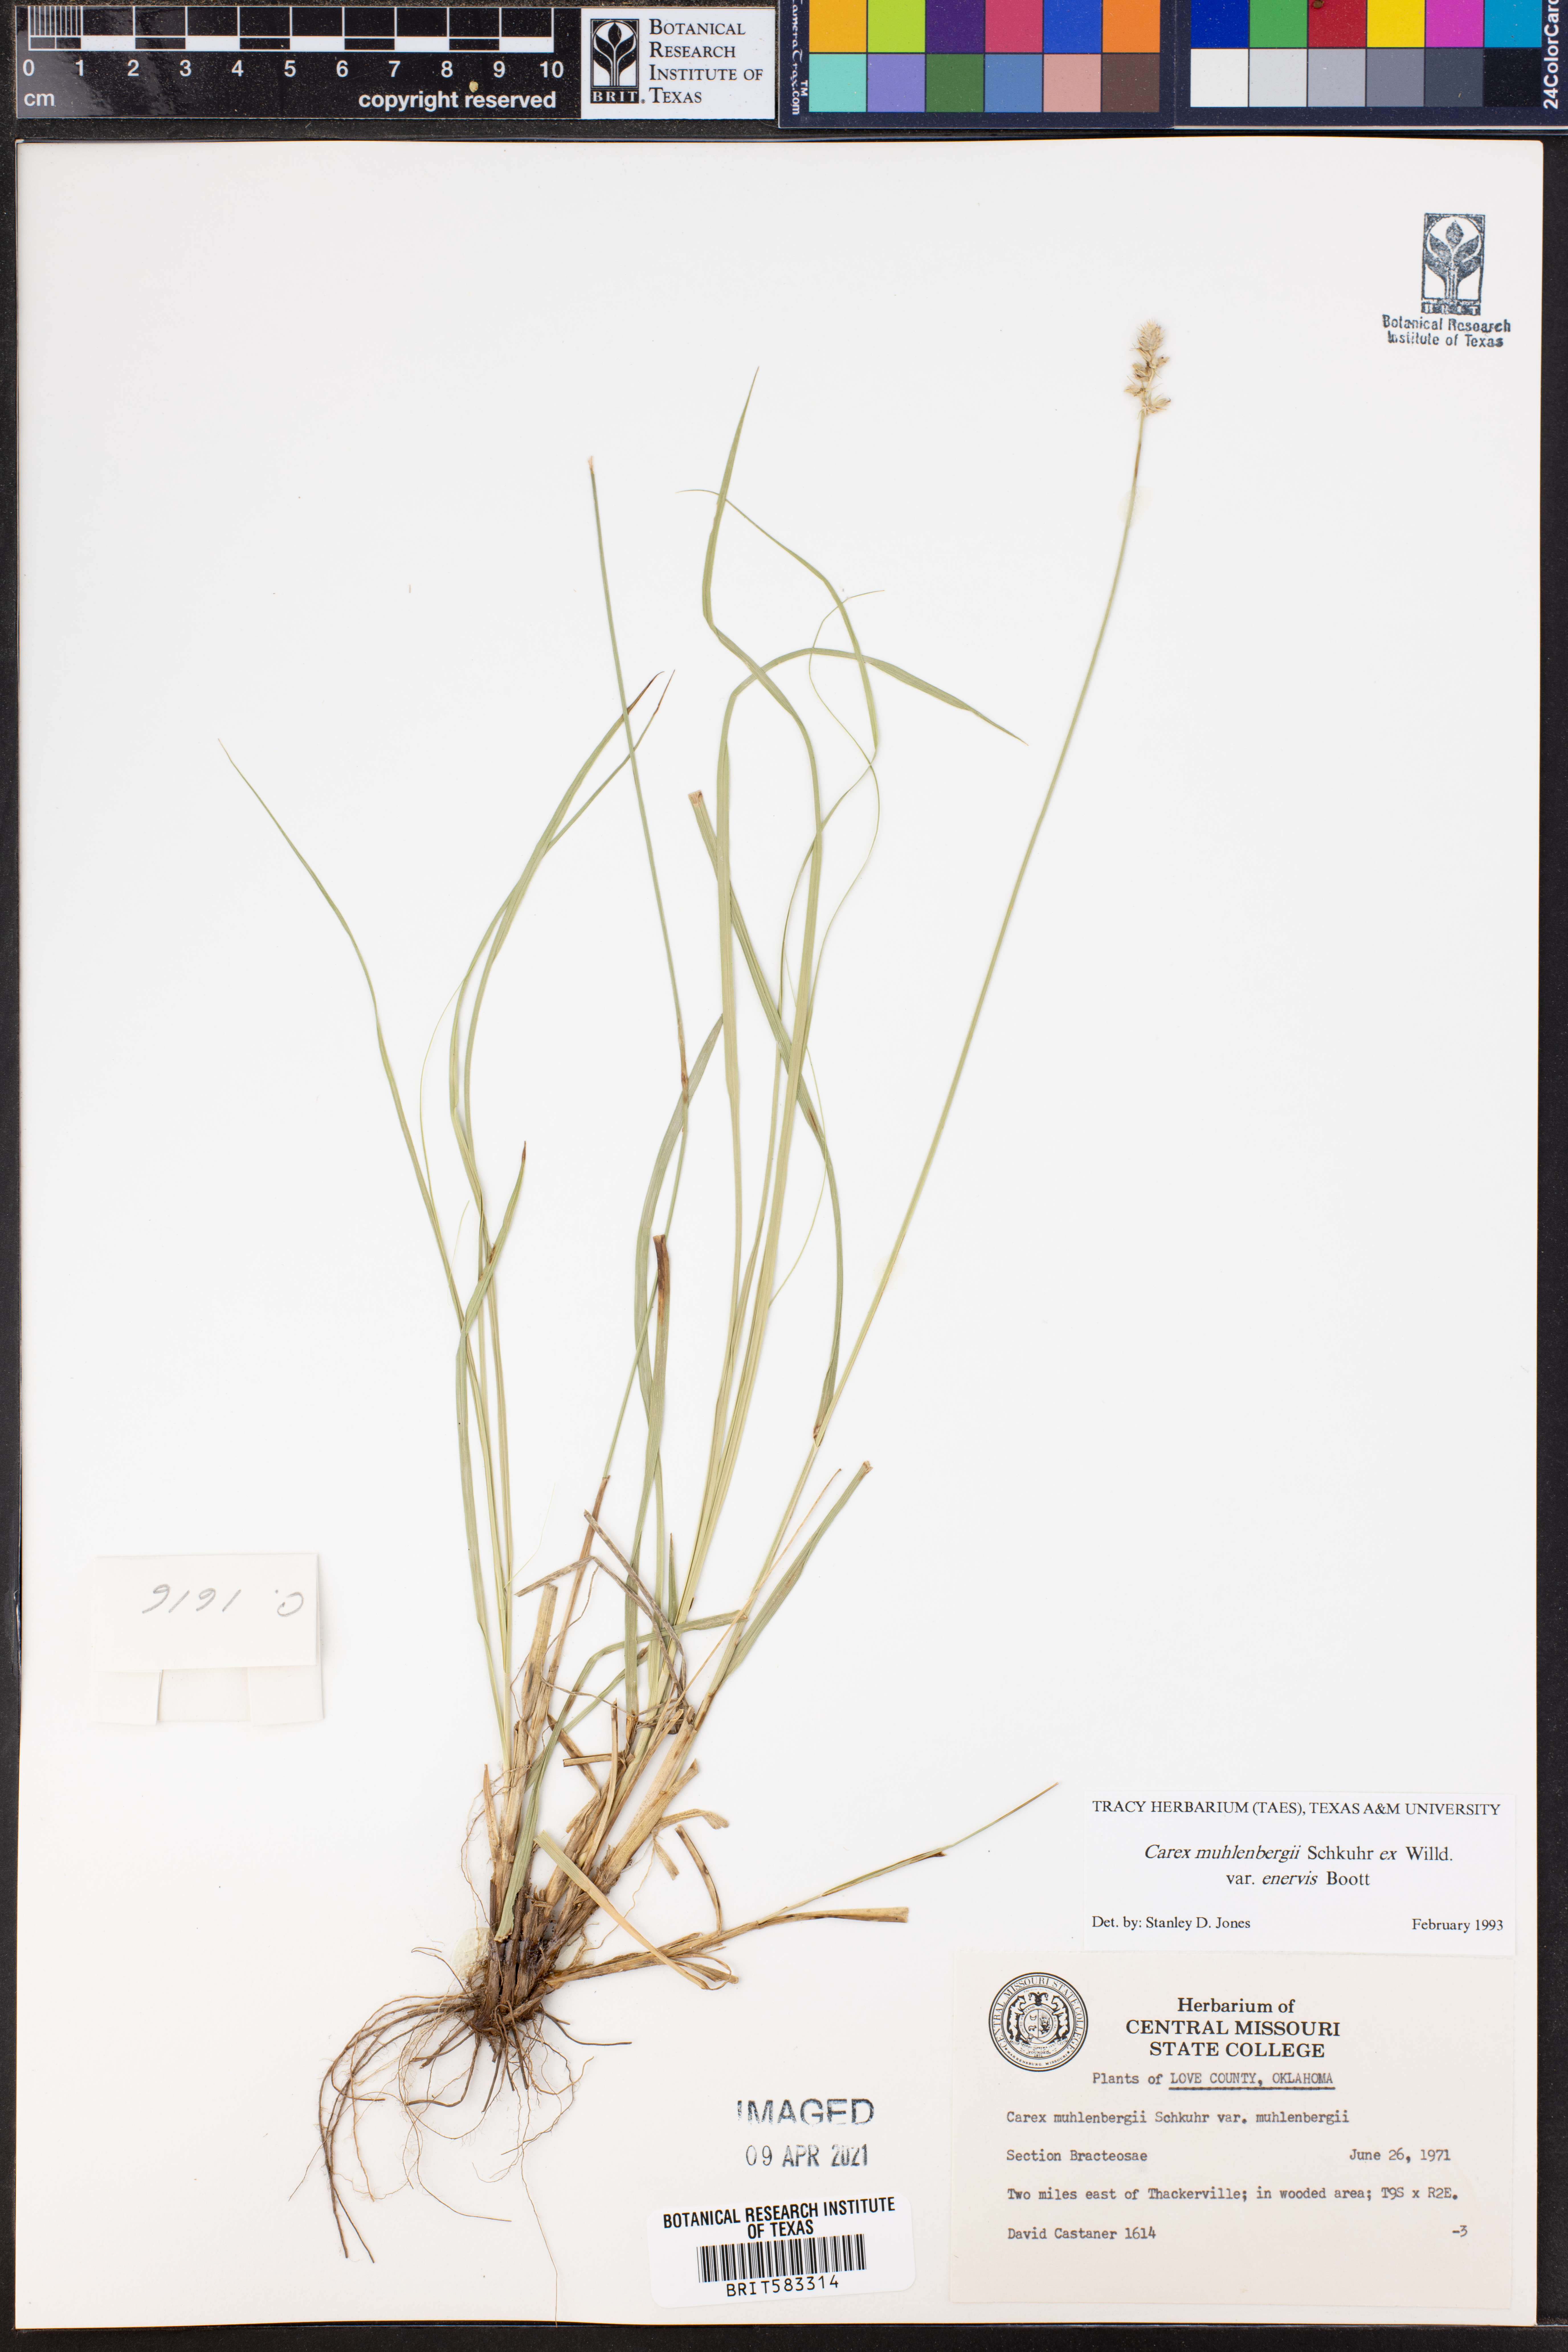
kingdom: Plantae
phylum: Tracheophyta
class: Liliopsida
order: Poales
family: Cyperaceae
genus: Carex
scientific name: Carex vulpinoidea
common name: American fox-sedge
